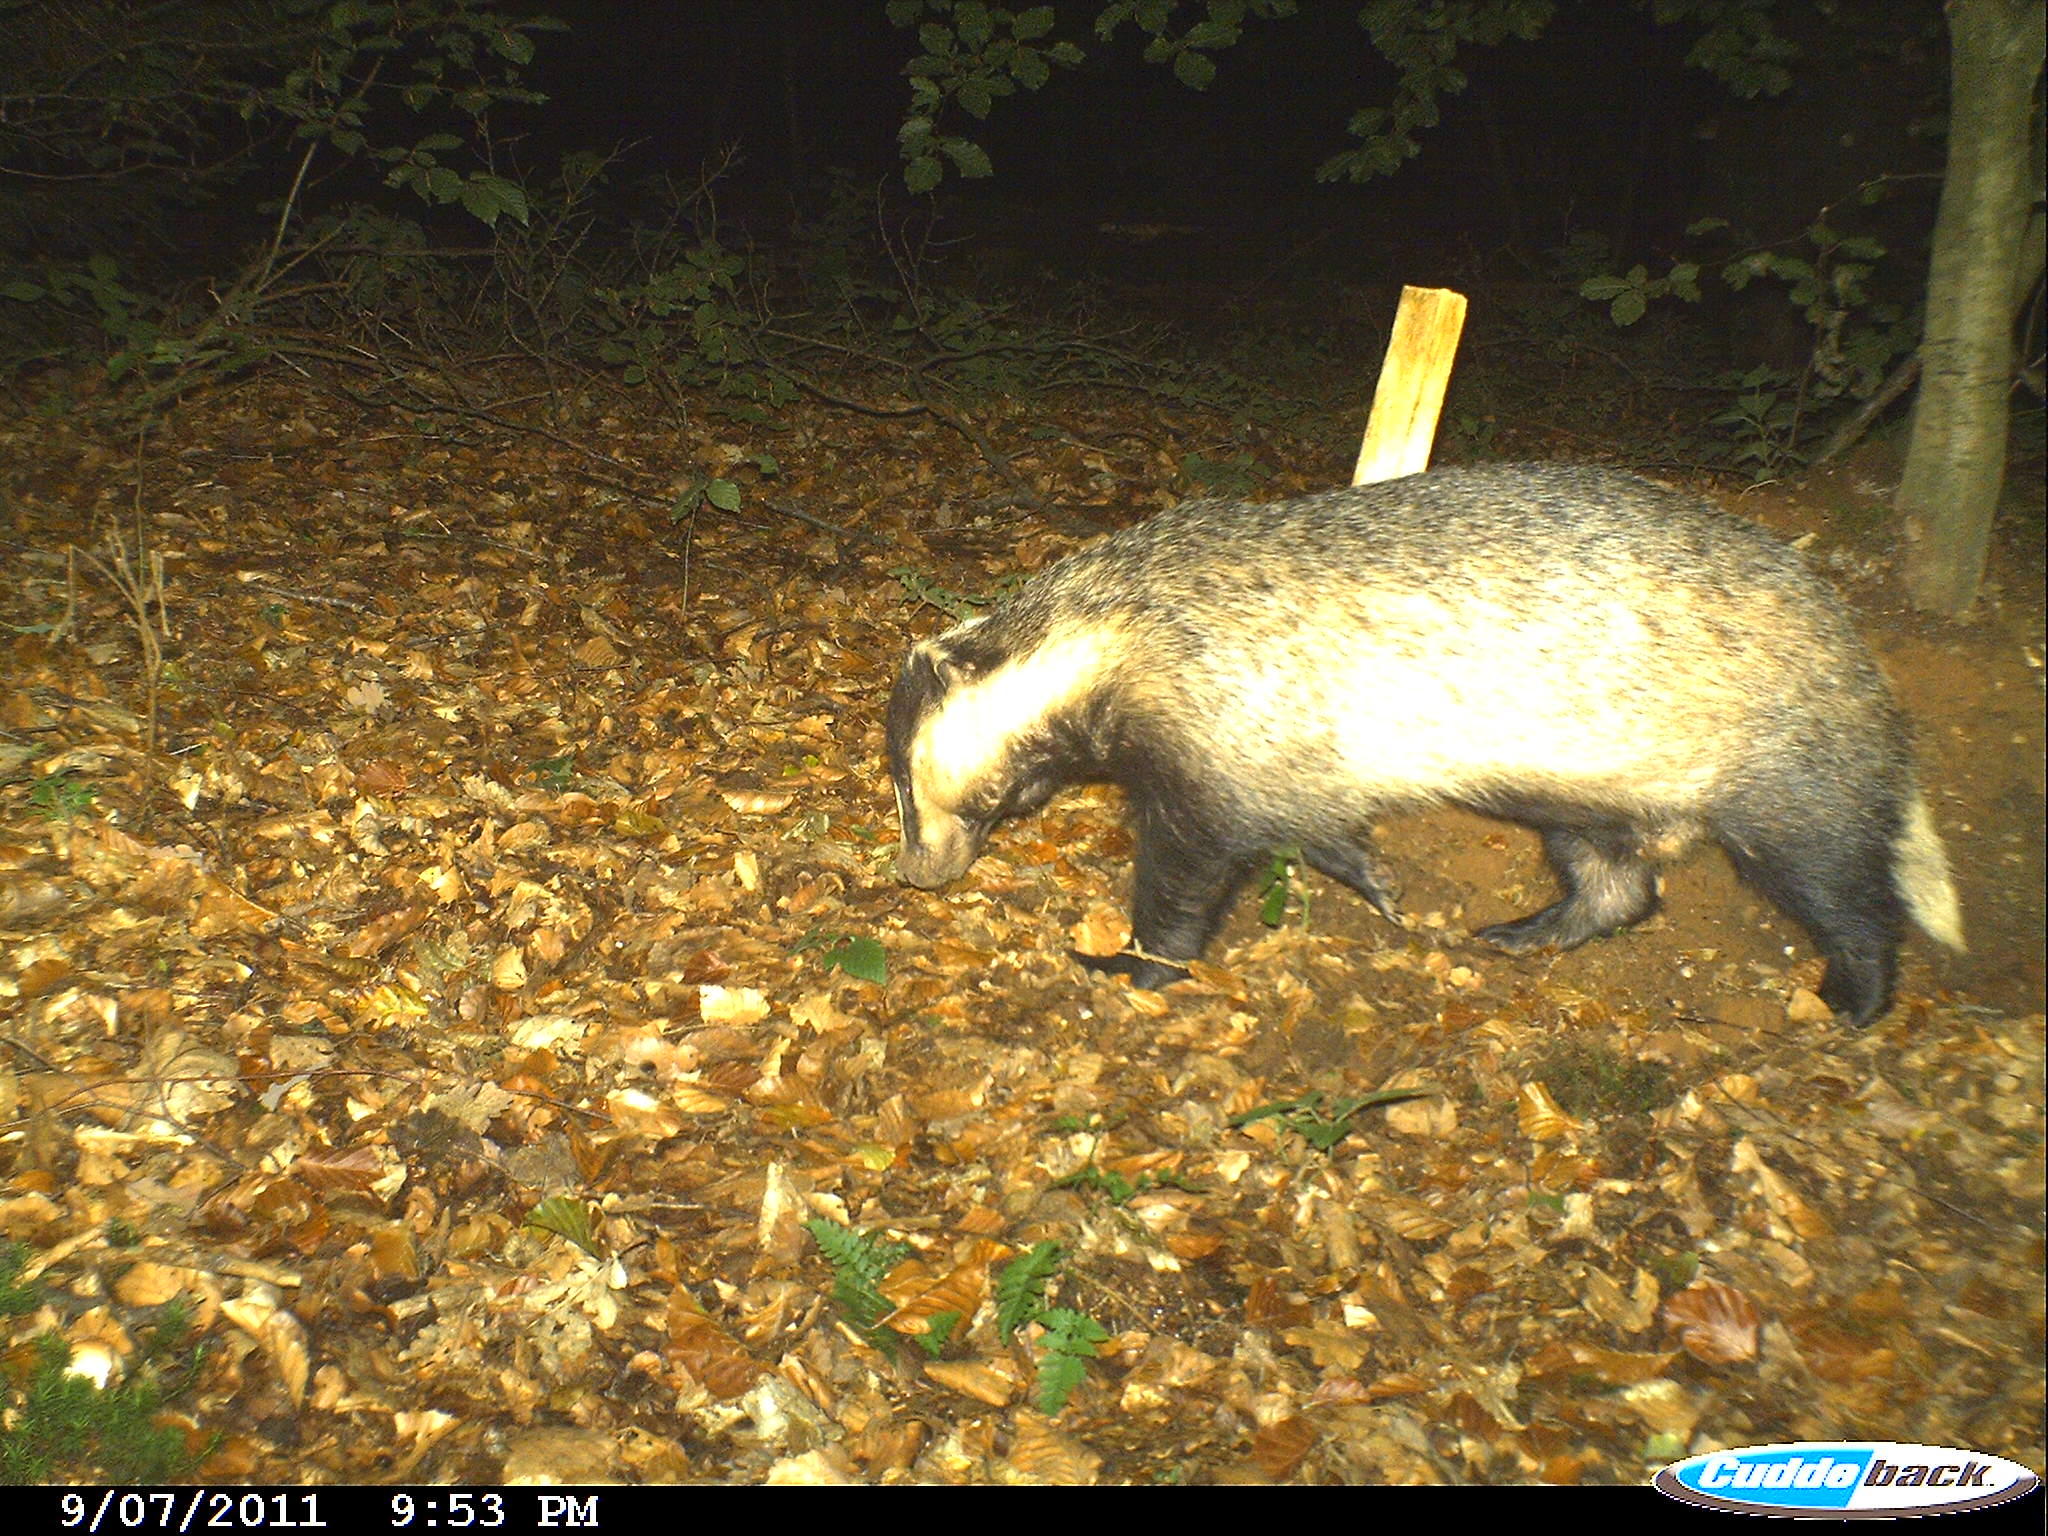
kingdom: Animalia
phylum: Chordata
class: Mammalia
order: Carnivora
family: Mustelidae
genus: Meles
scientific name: Meles meles
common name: Eurasian badger
